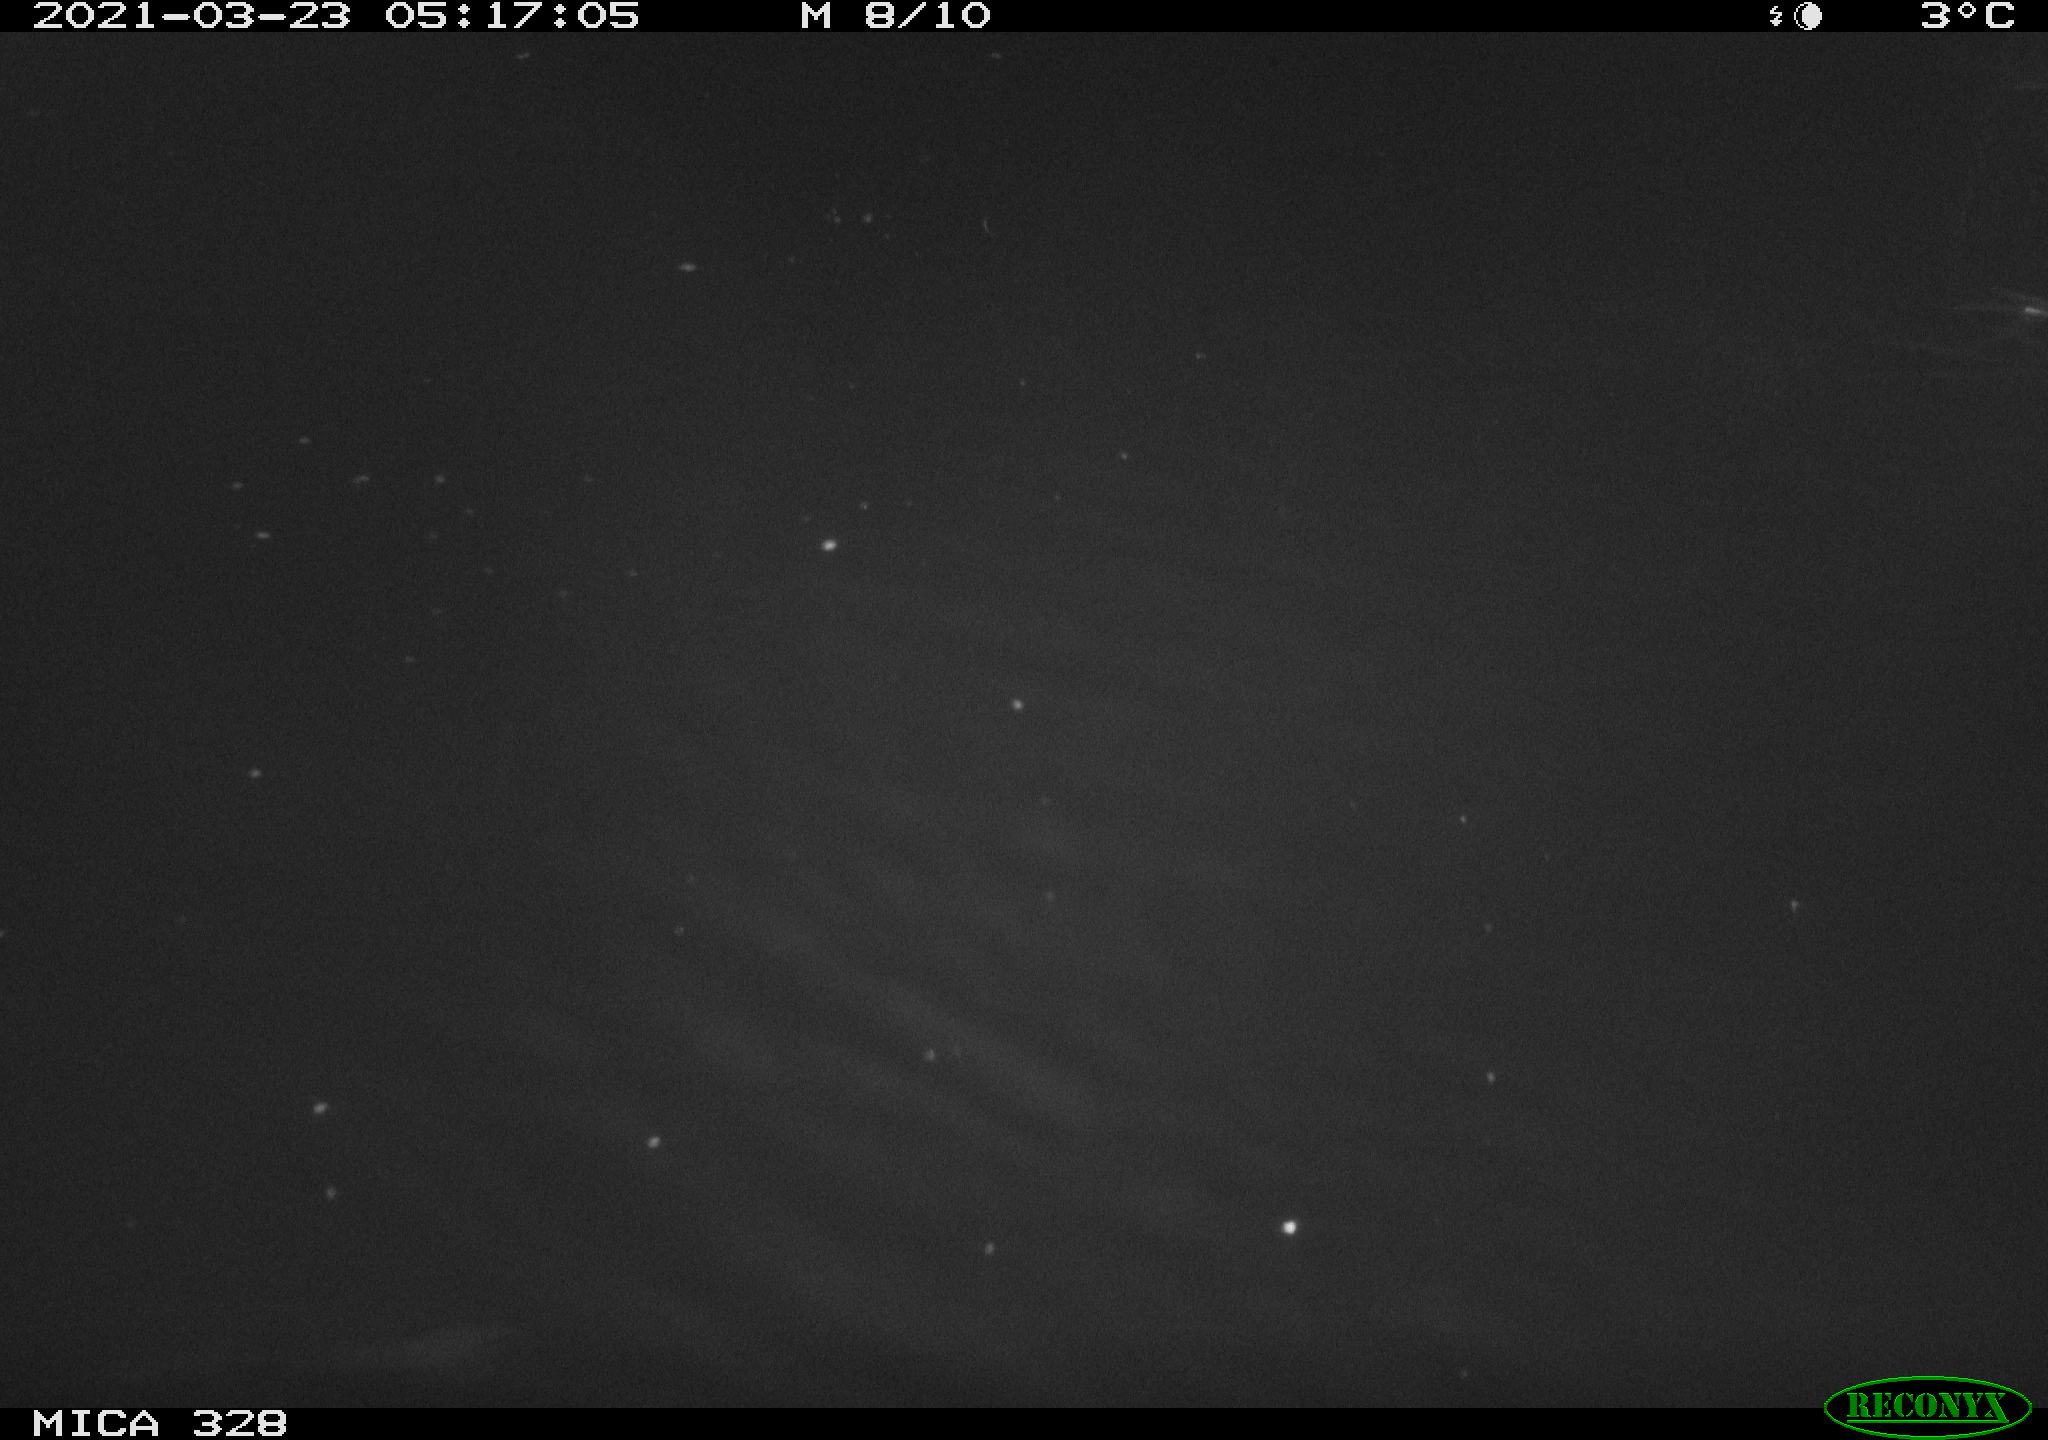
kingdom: Animalia
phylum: Chordata
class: Aves
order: Anseriformes
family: Anatidae
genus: Anas
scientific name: Anas platyrhynchos
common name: Mallard
